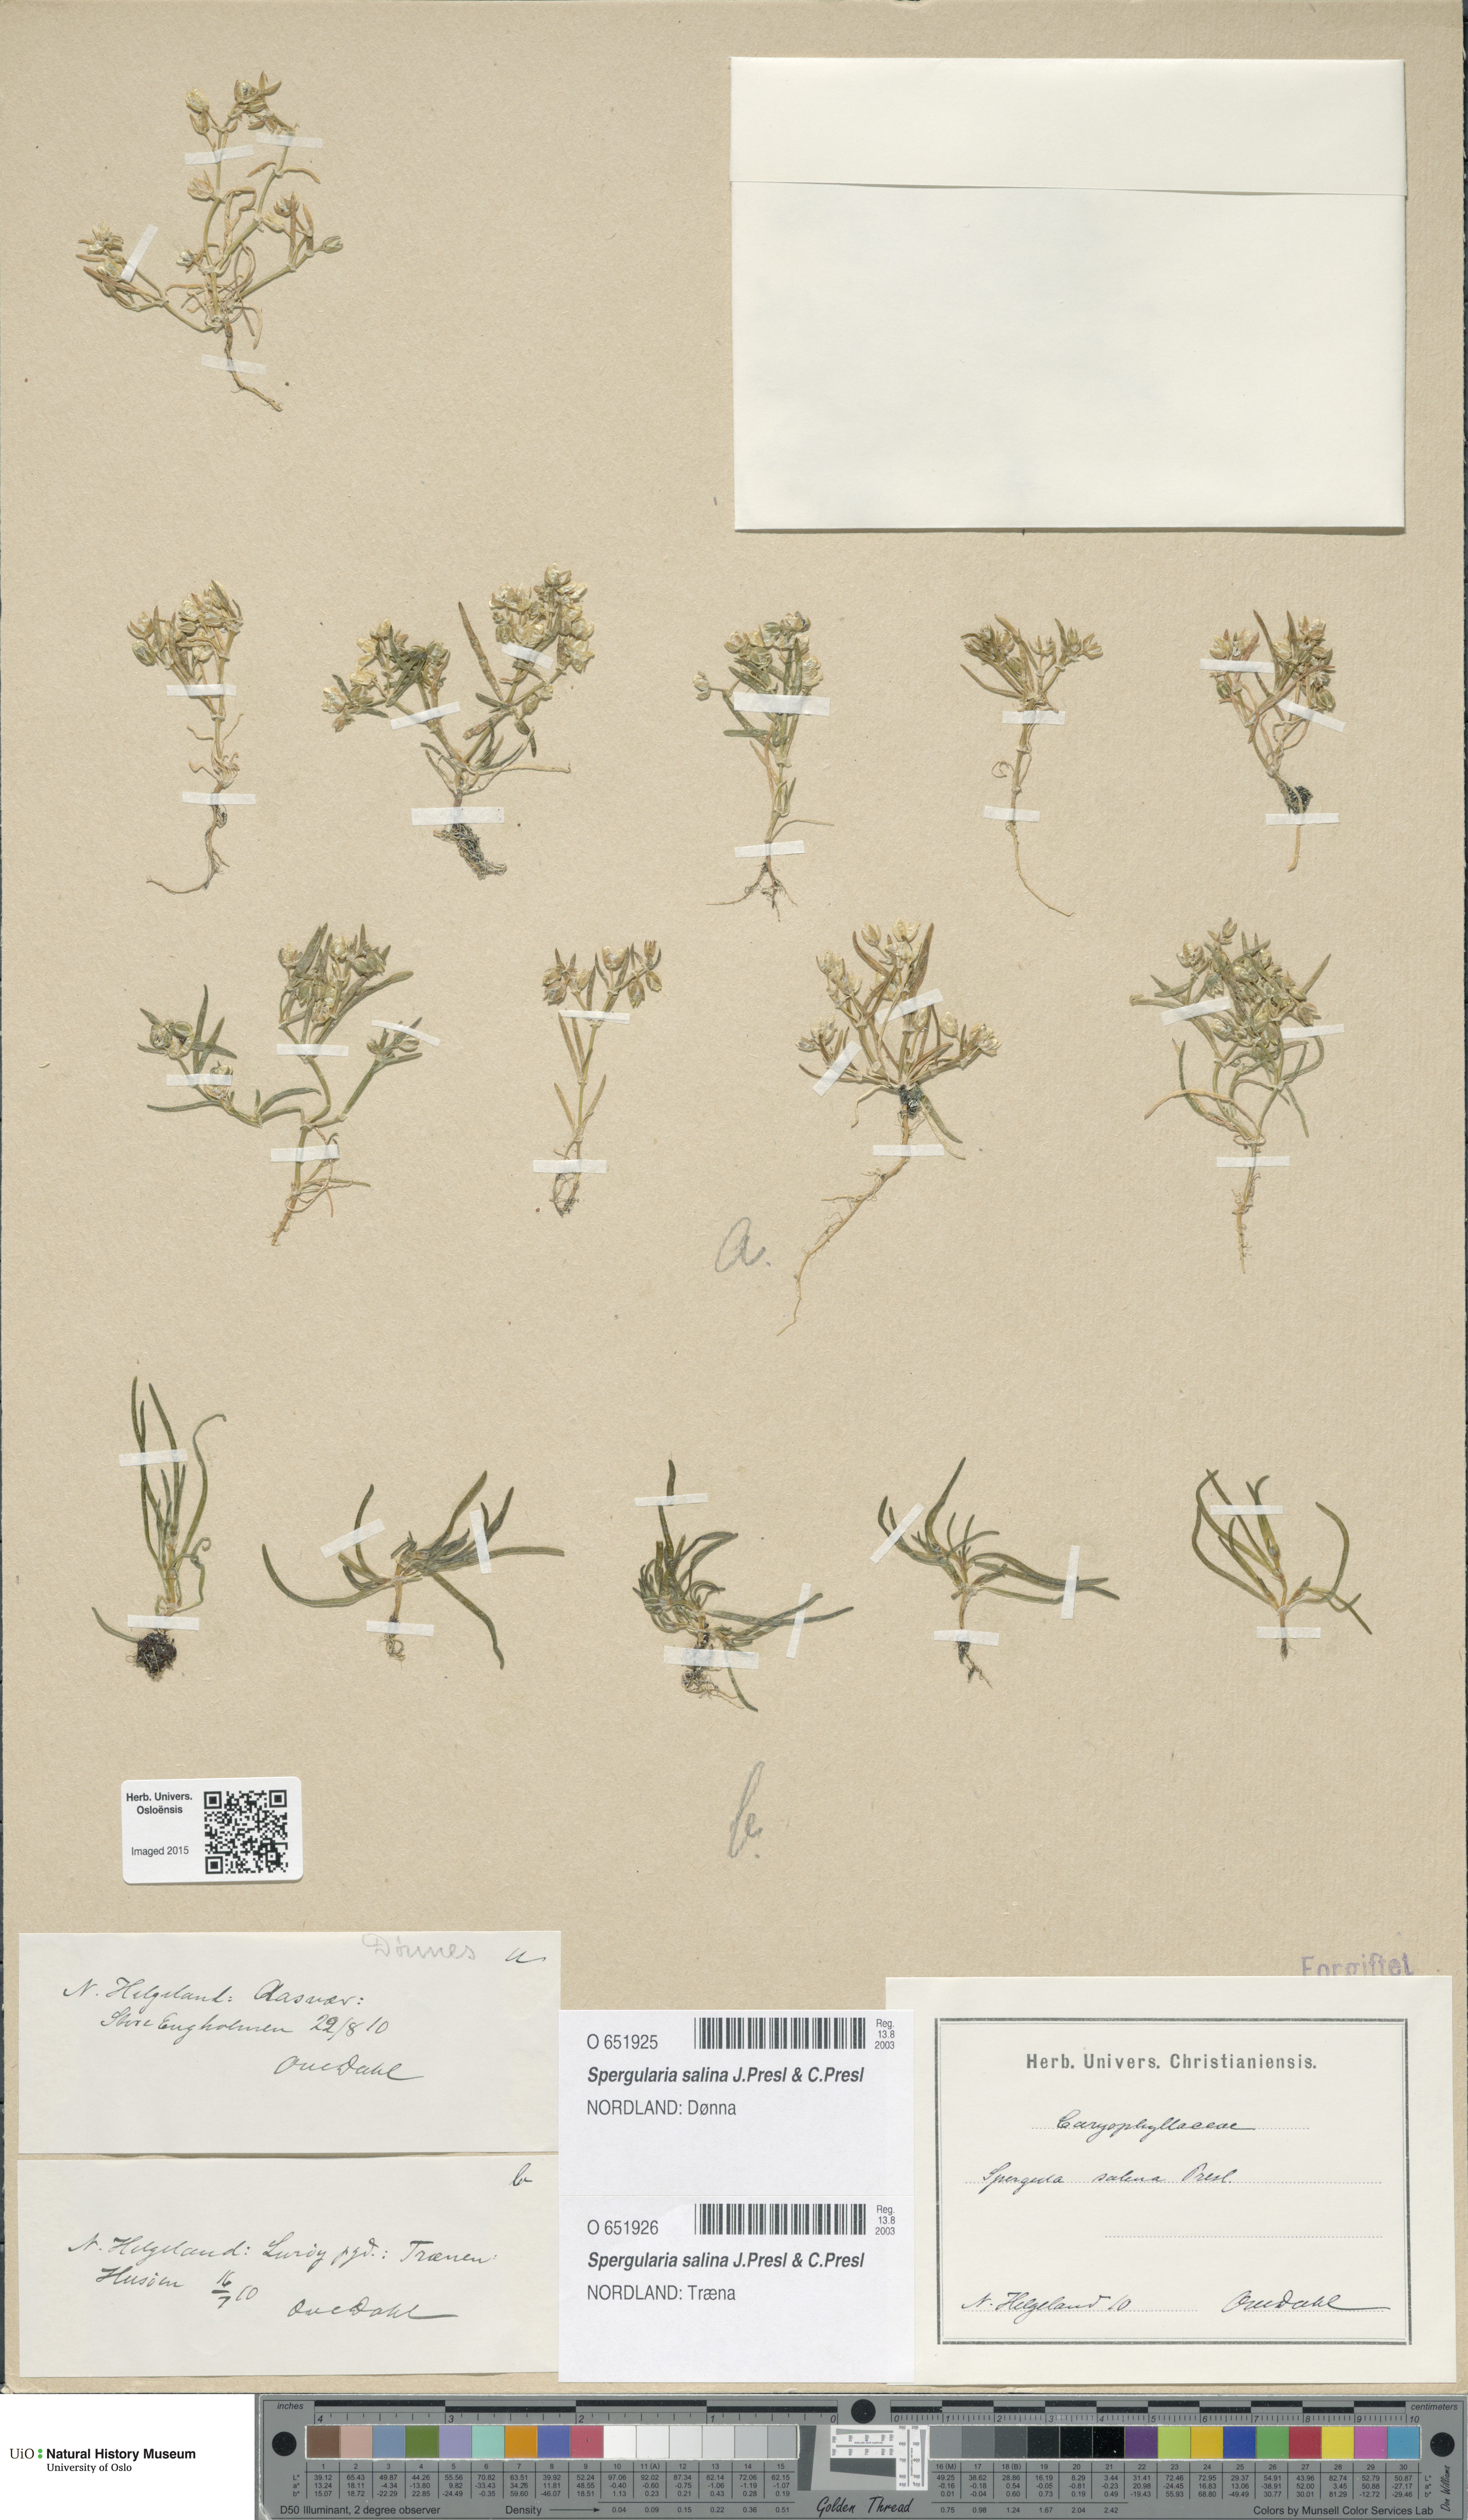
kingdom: Plantae
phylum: Tracheophyta
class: Magnoliopsida
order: Caryophyllales
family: Caryophyllaceae
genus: Spergularia
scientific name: Spergularia marina
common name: Lesser sea-spurrey
